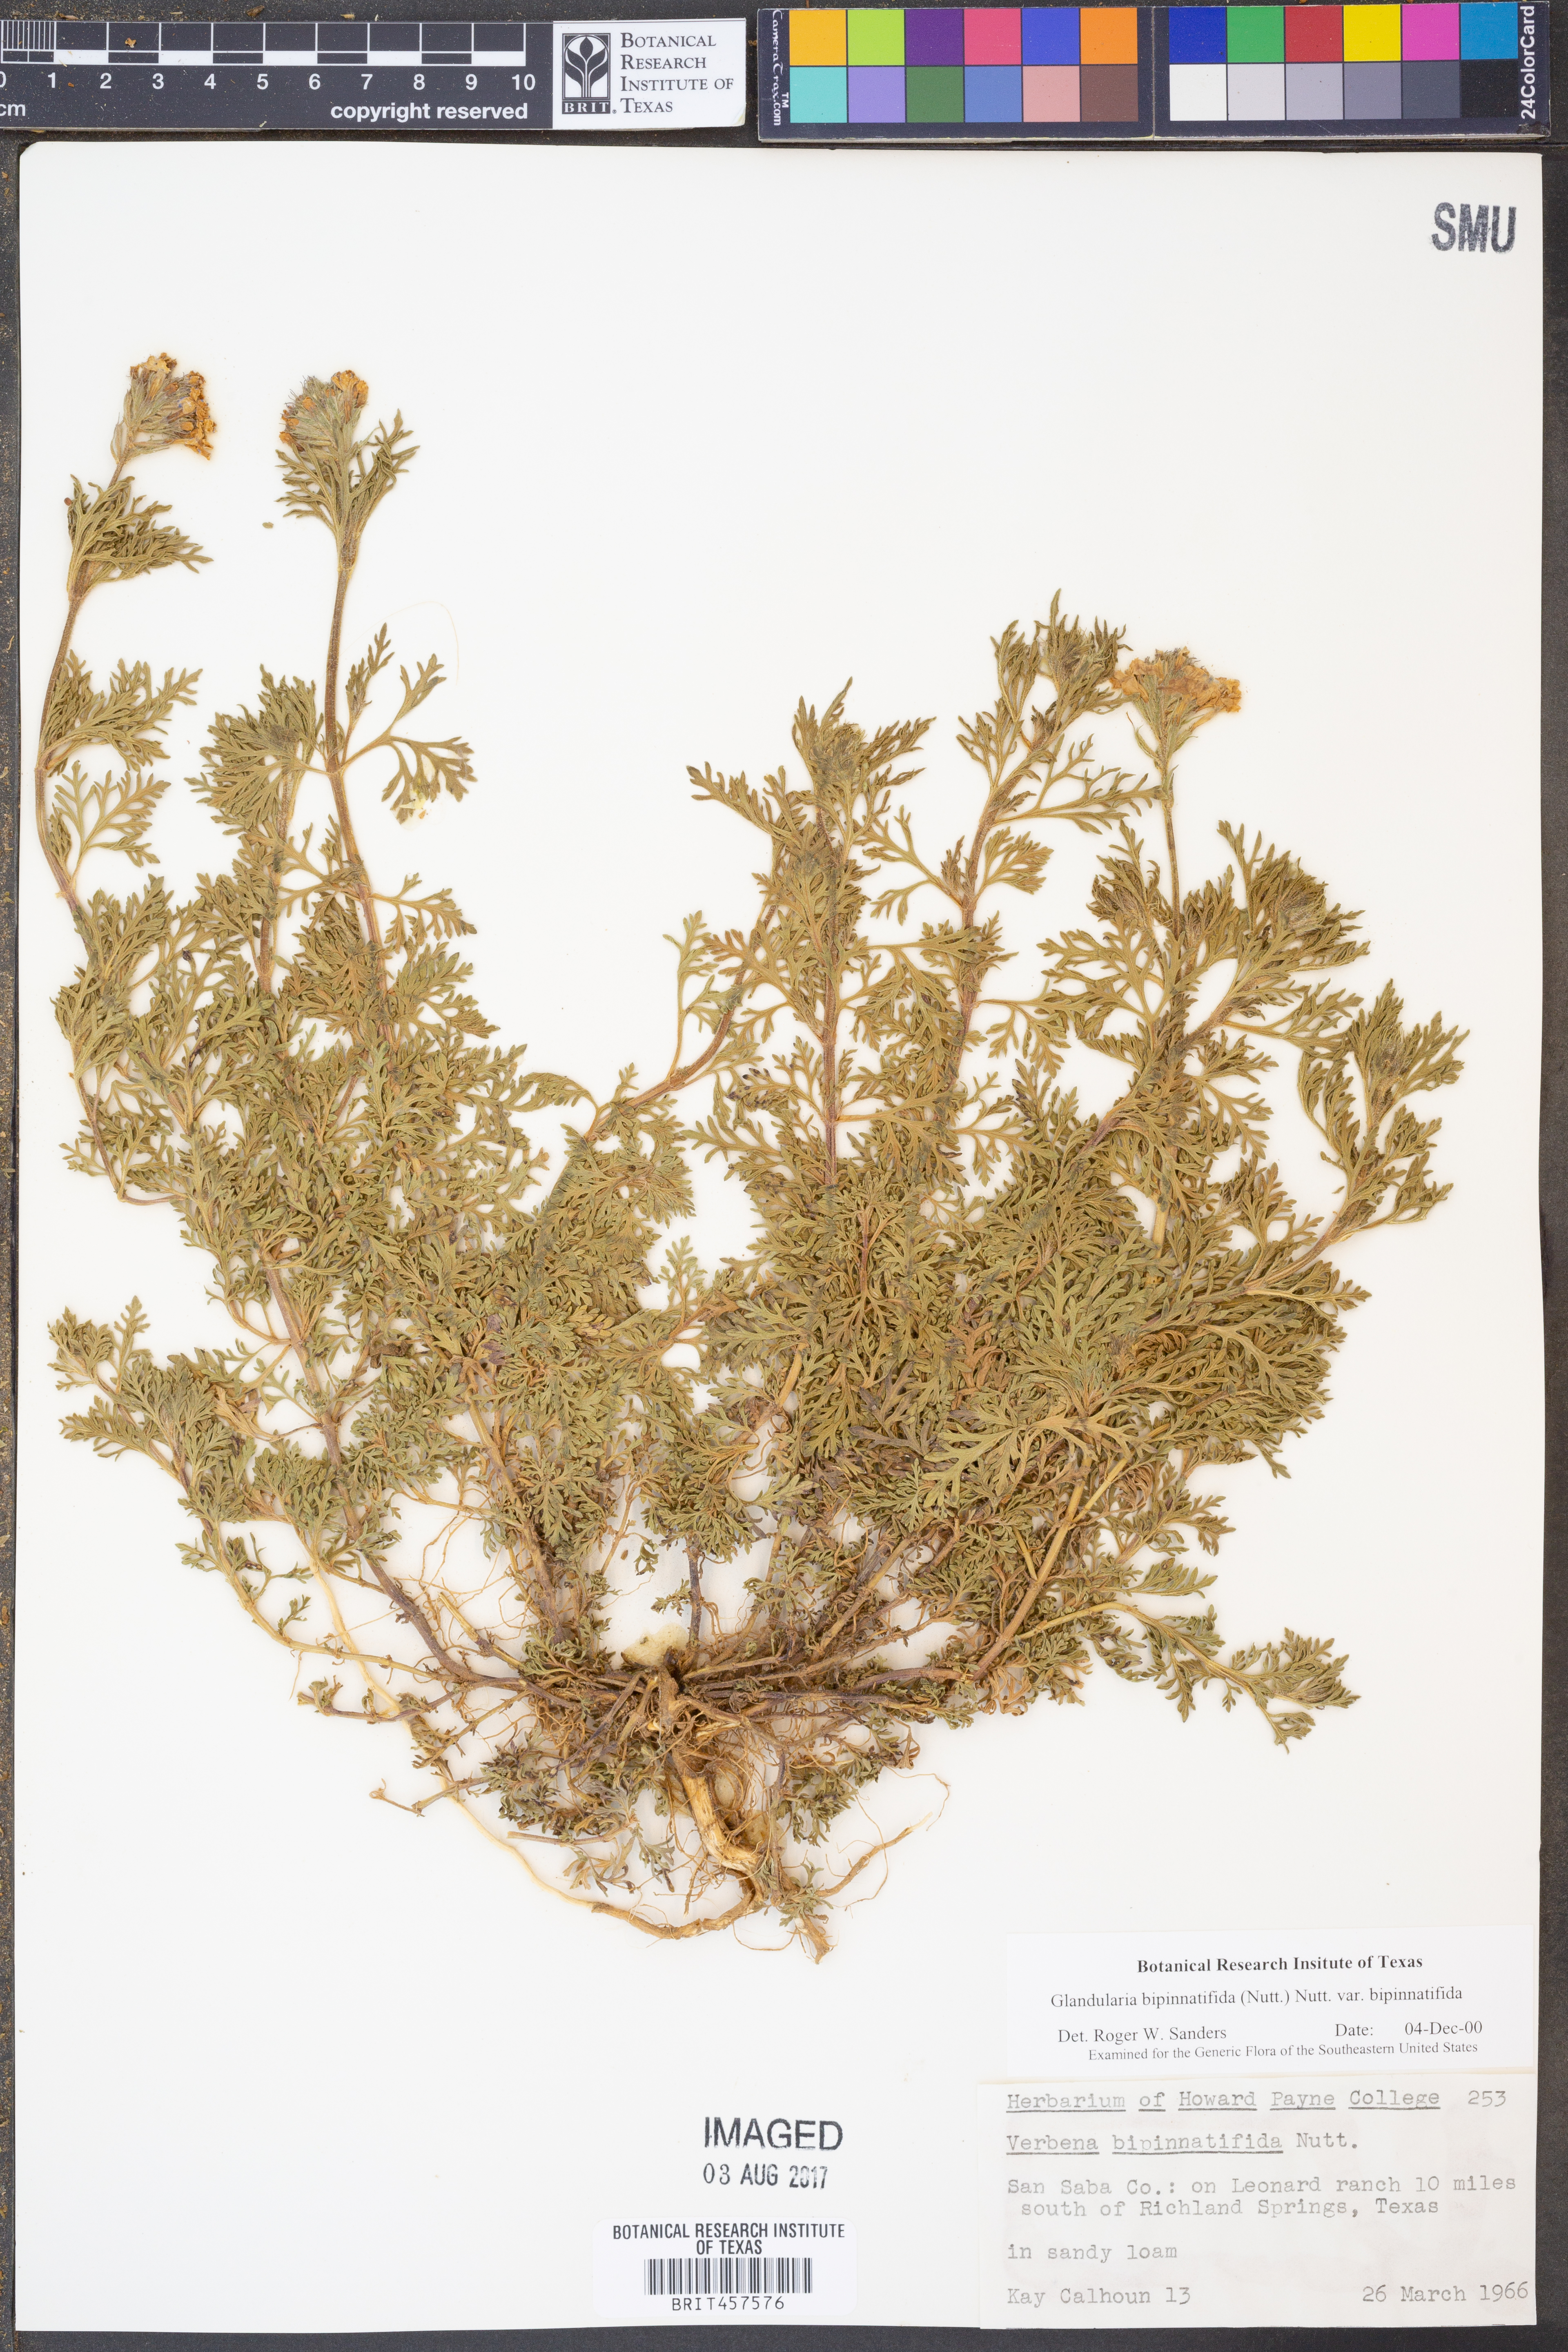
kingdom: Plantae
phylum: Tracheophyta
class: Magnoliopsida
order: Lamiales
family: Verbenaceae
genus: Verbena
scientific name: Verbena bipinnatifida
